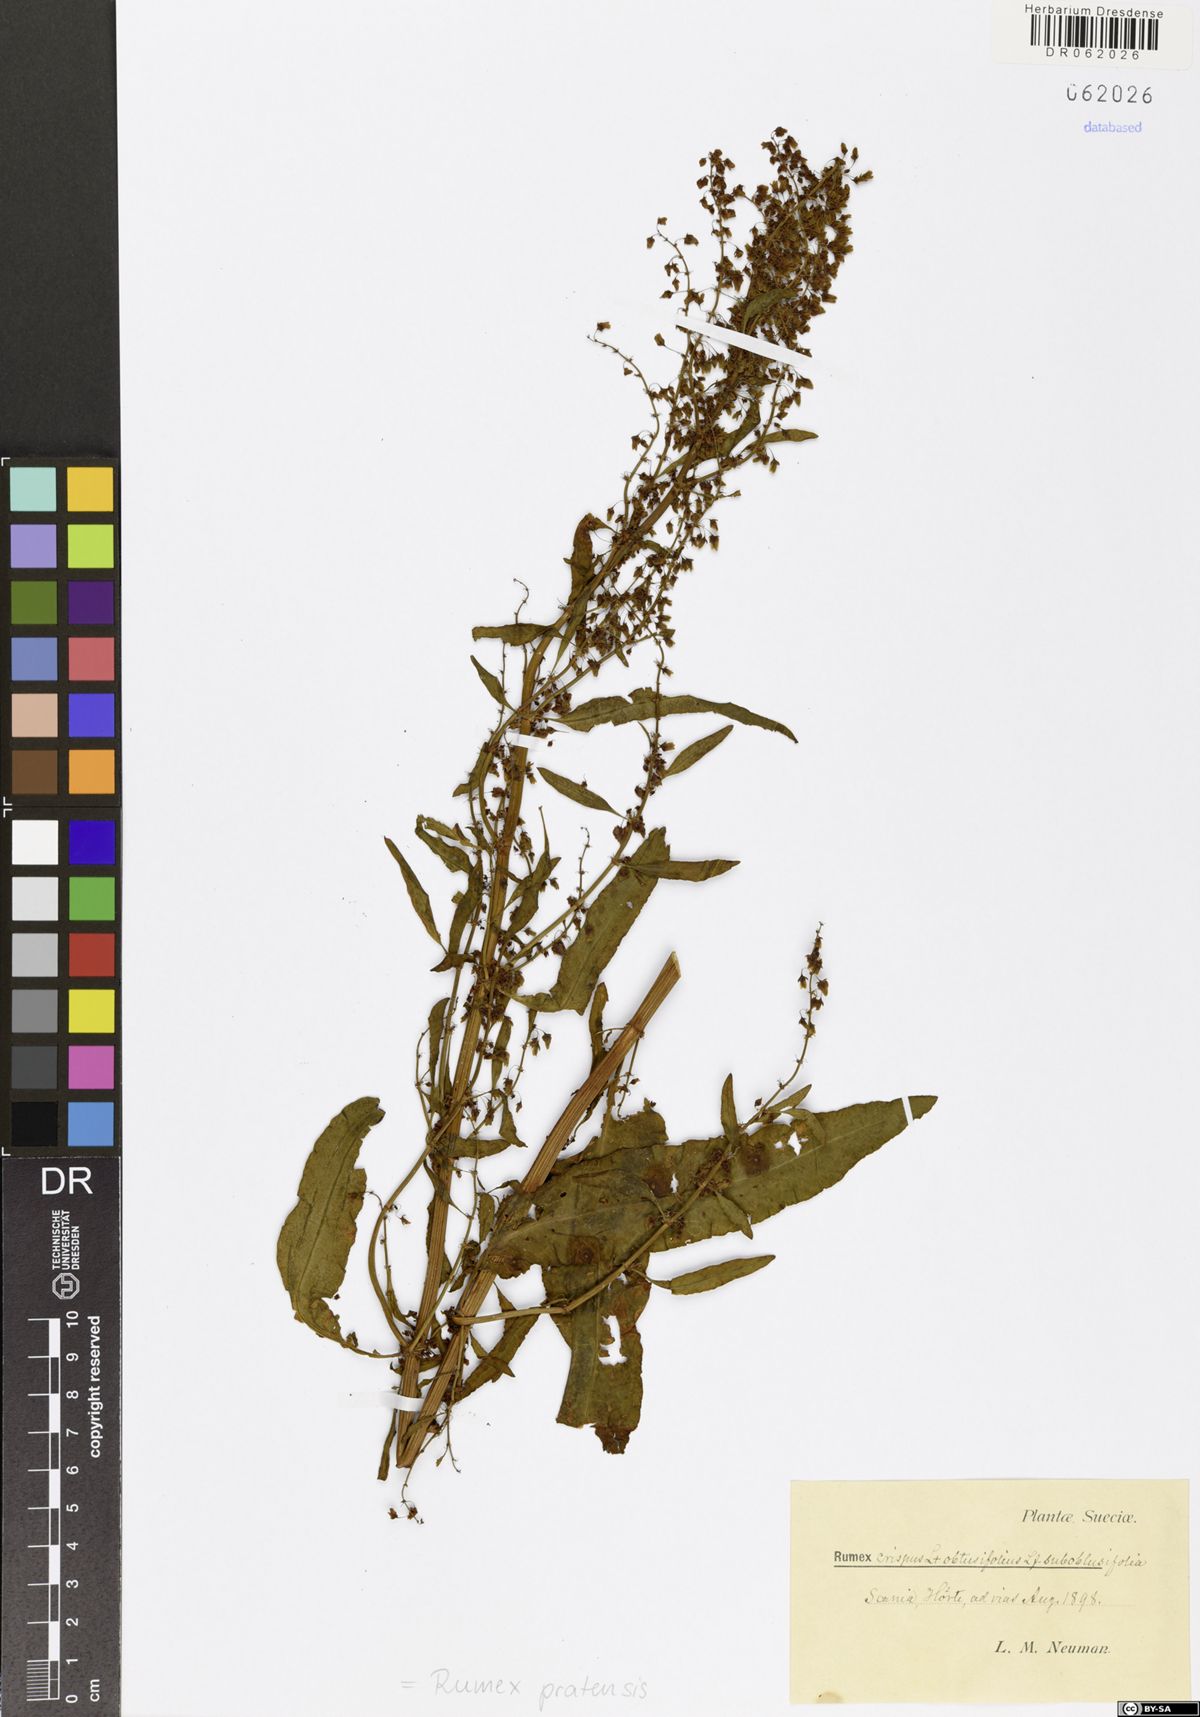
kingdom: Plantae
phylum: Tracheophyta
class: Magnoliopsida
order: Caryophyllales
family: Polygonaceae
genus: Rumex
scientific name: Rumex pratensis
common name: Knotweed
